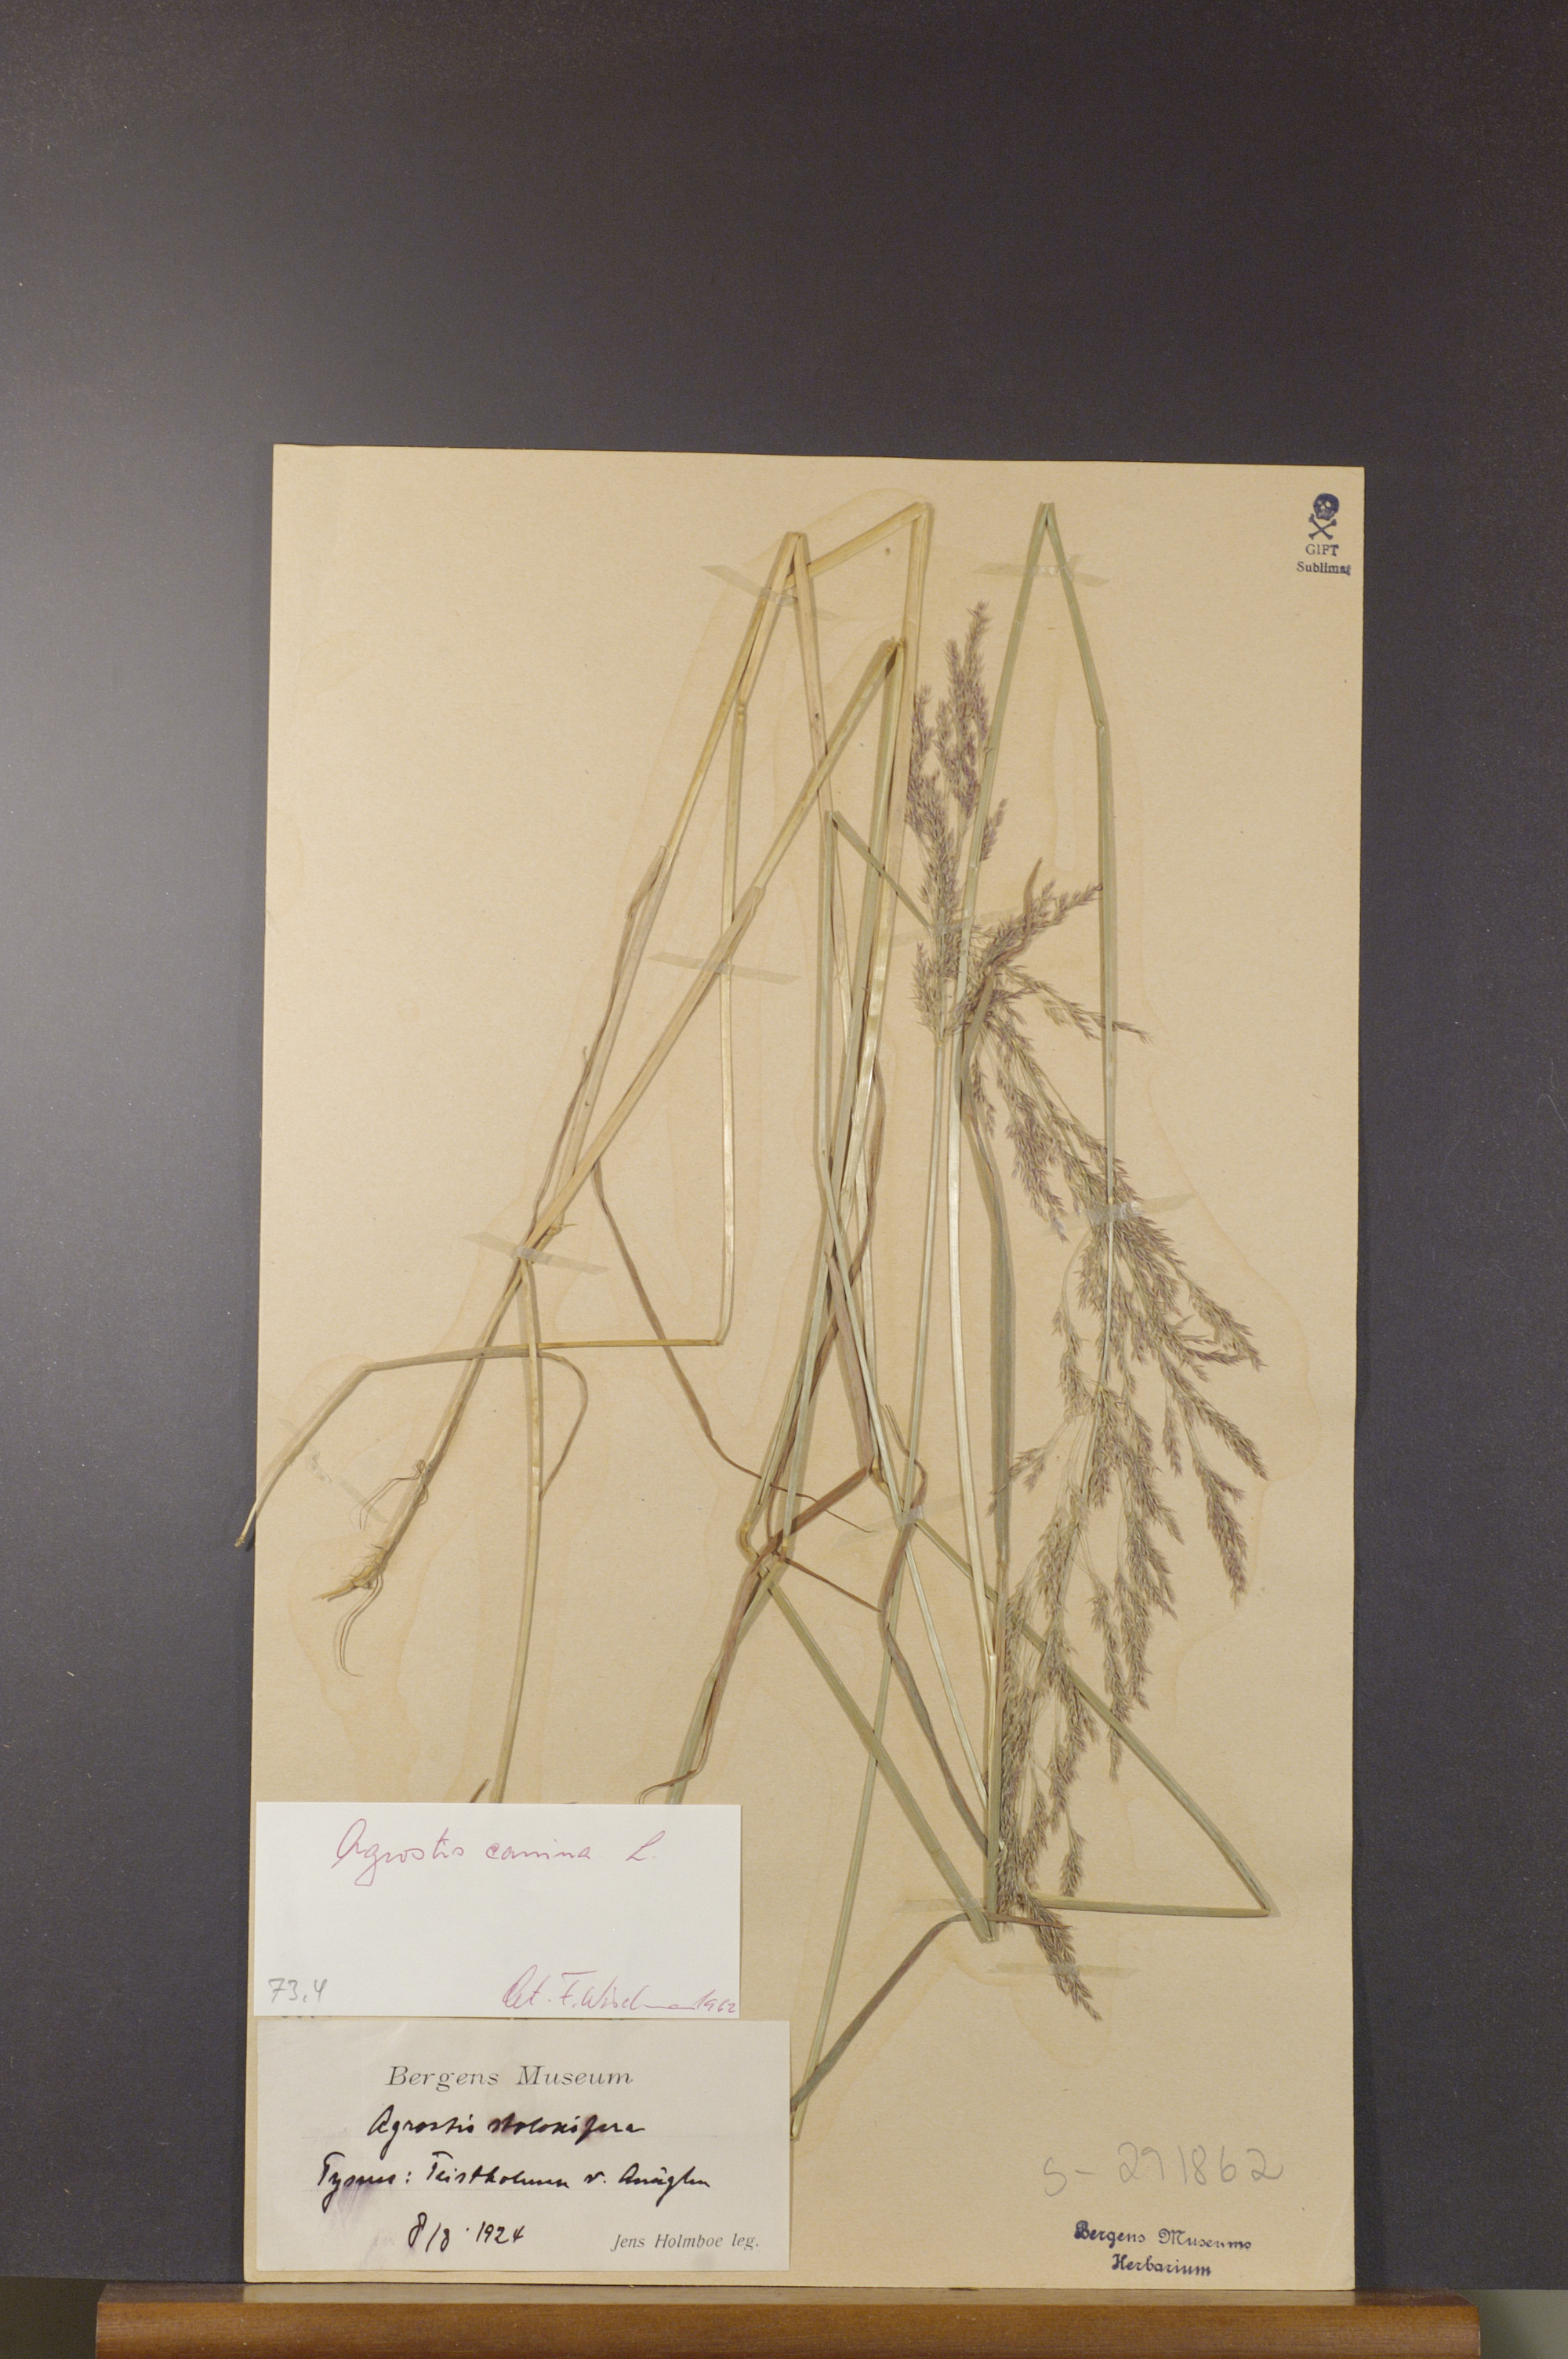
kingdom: Plantae
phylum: Tracheophyta
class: Liliopsida
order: Poales
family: Poaceae
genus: Agrostis
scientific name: Agrostis canina
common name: Velvet bent
